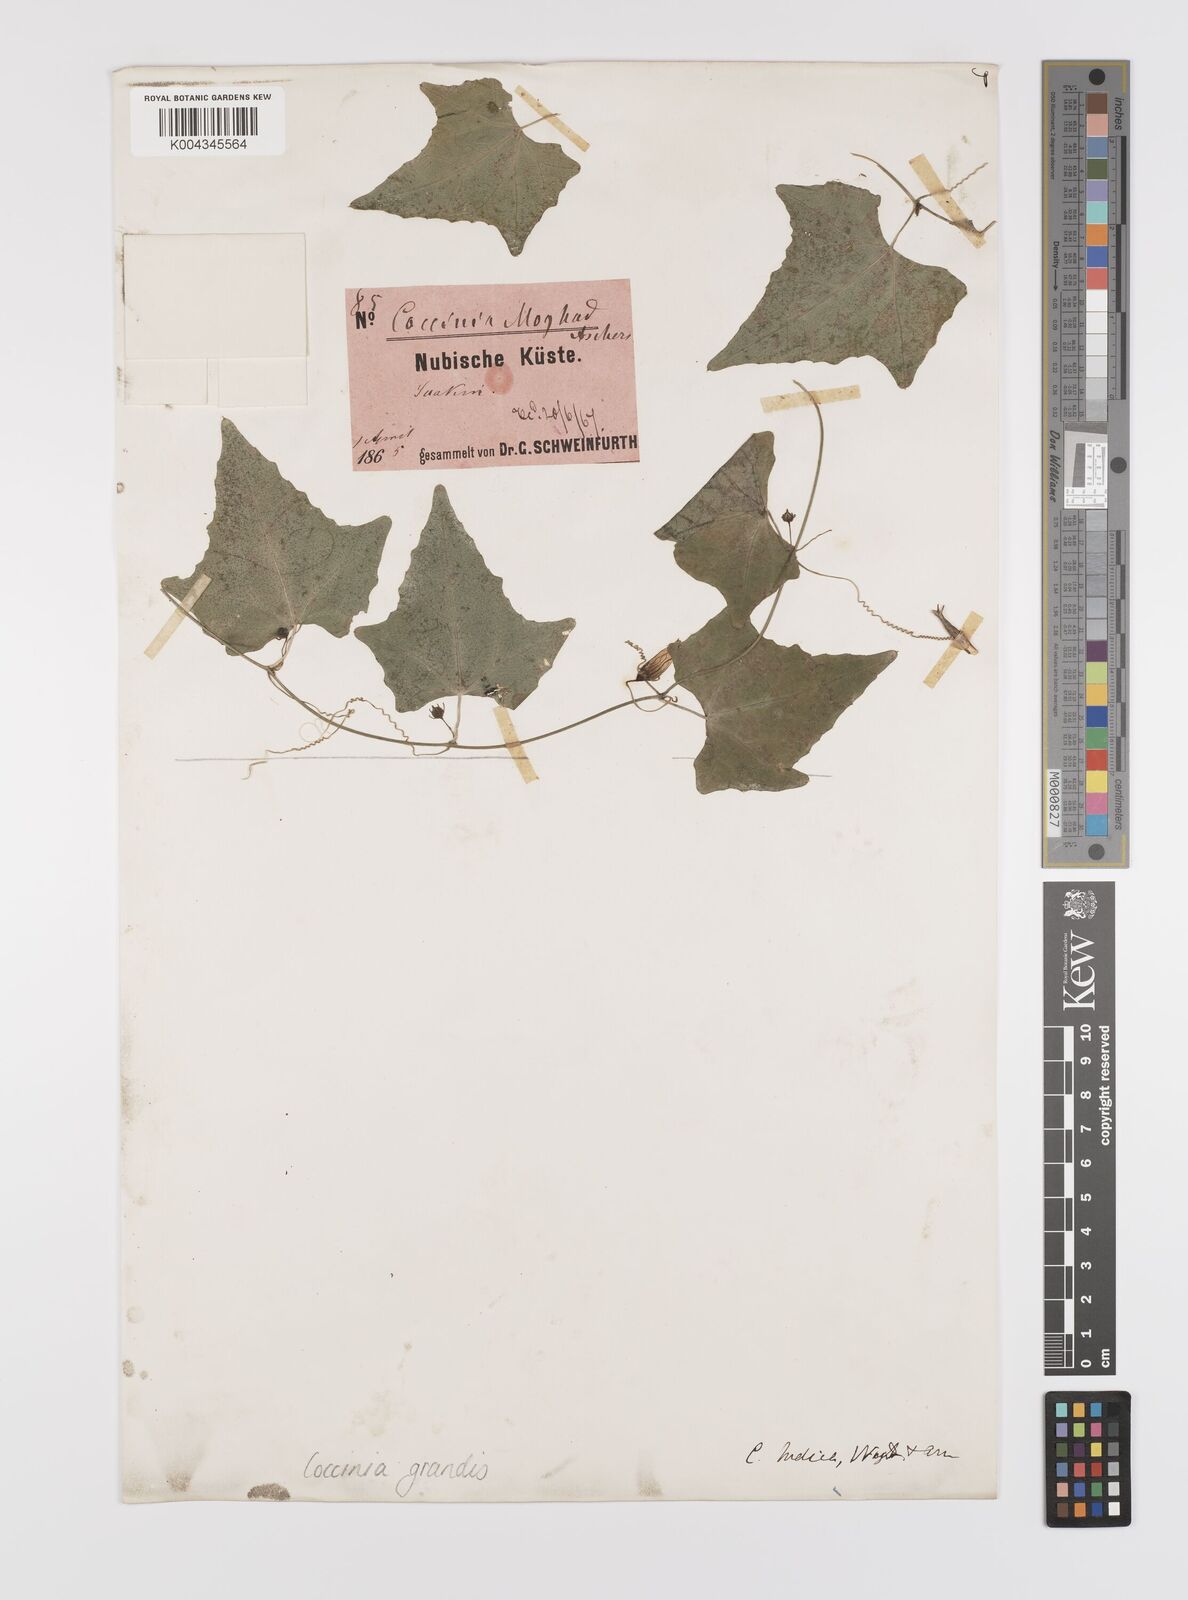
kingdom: Plantae
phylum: Tracheophyta
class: Magnoliopsida
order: Cucurbitales
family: Cucurbitaceae
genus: Coccinia
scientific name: Coccinia grandis
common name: Ivy gourd
